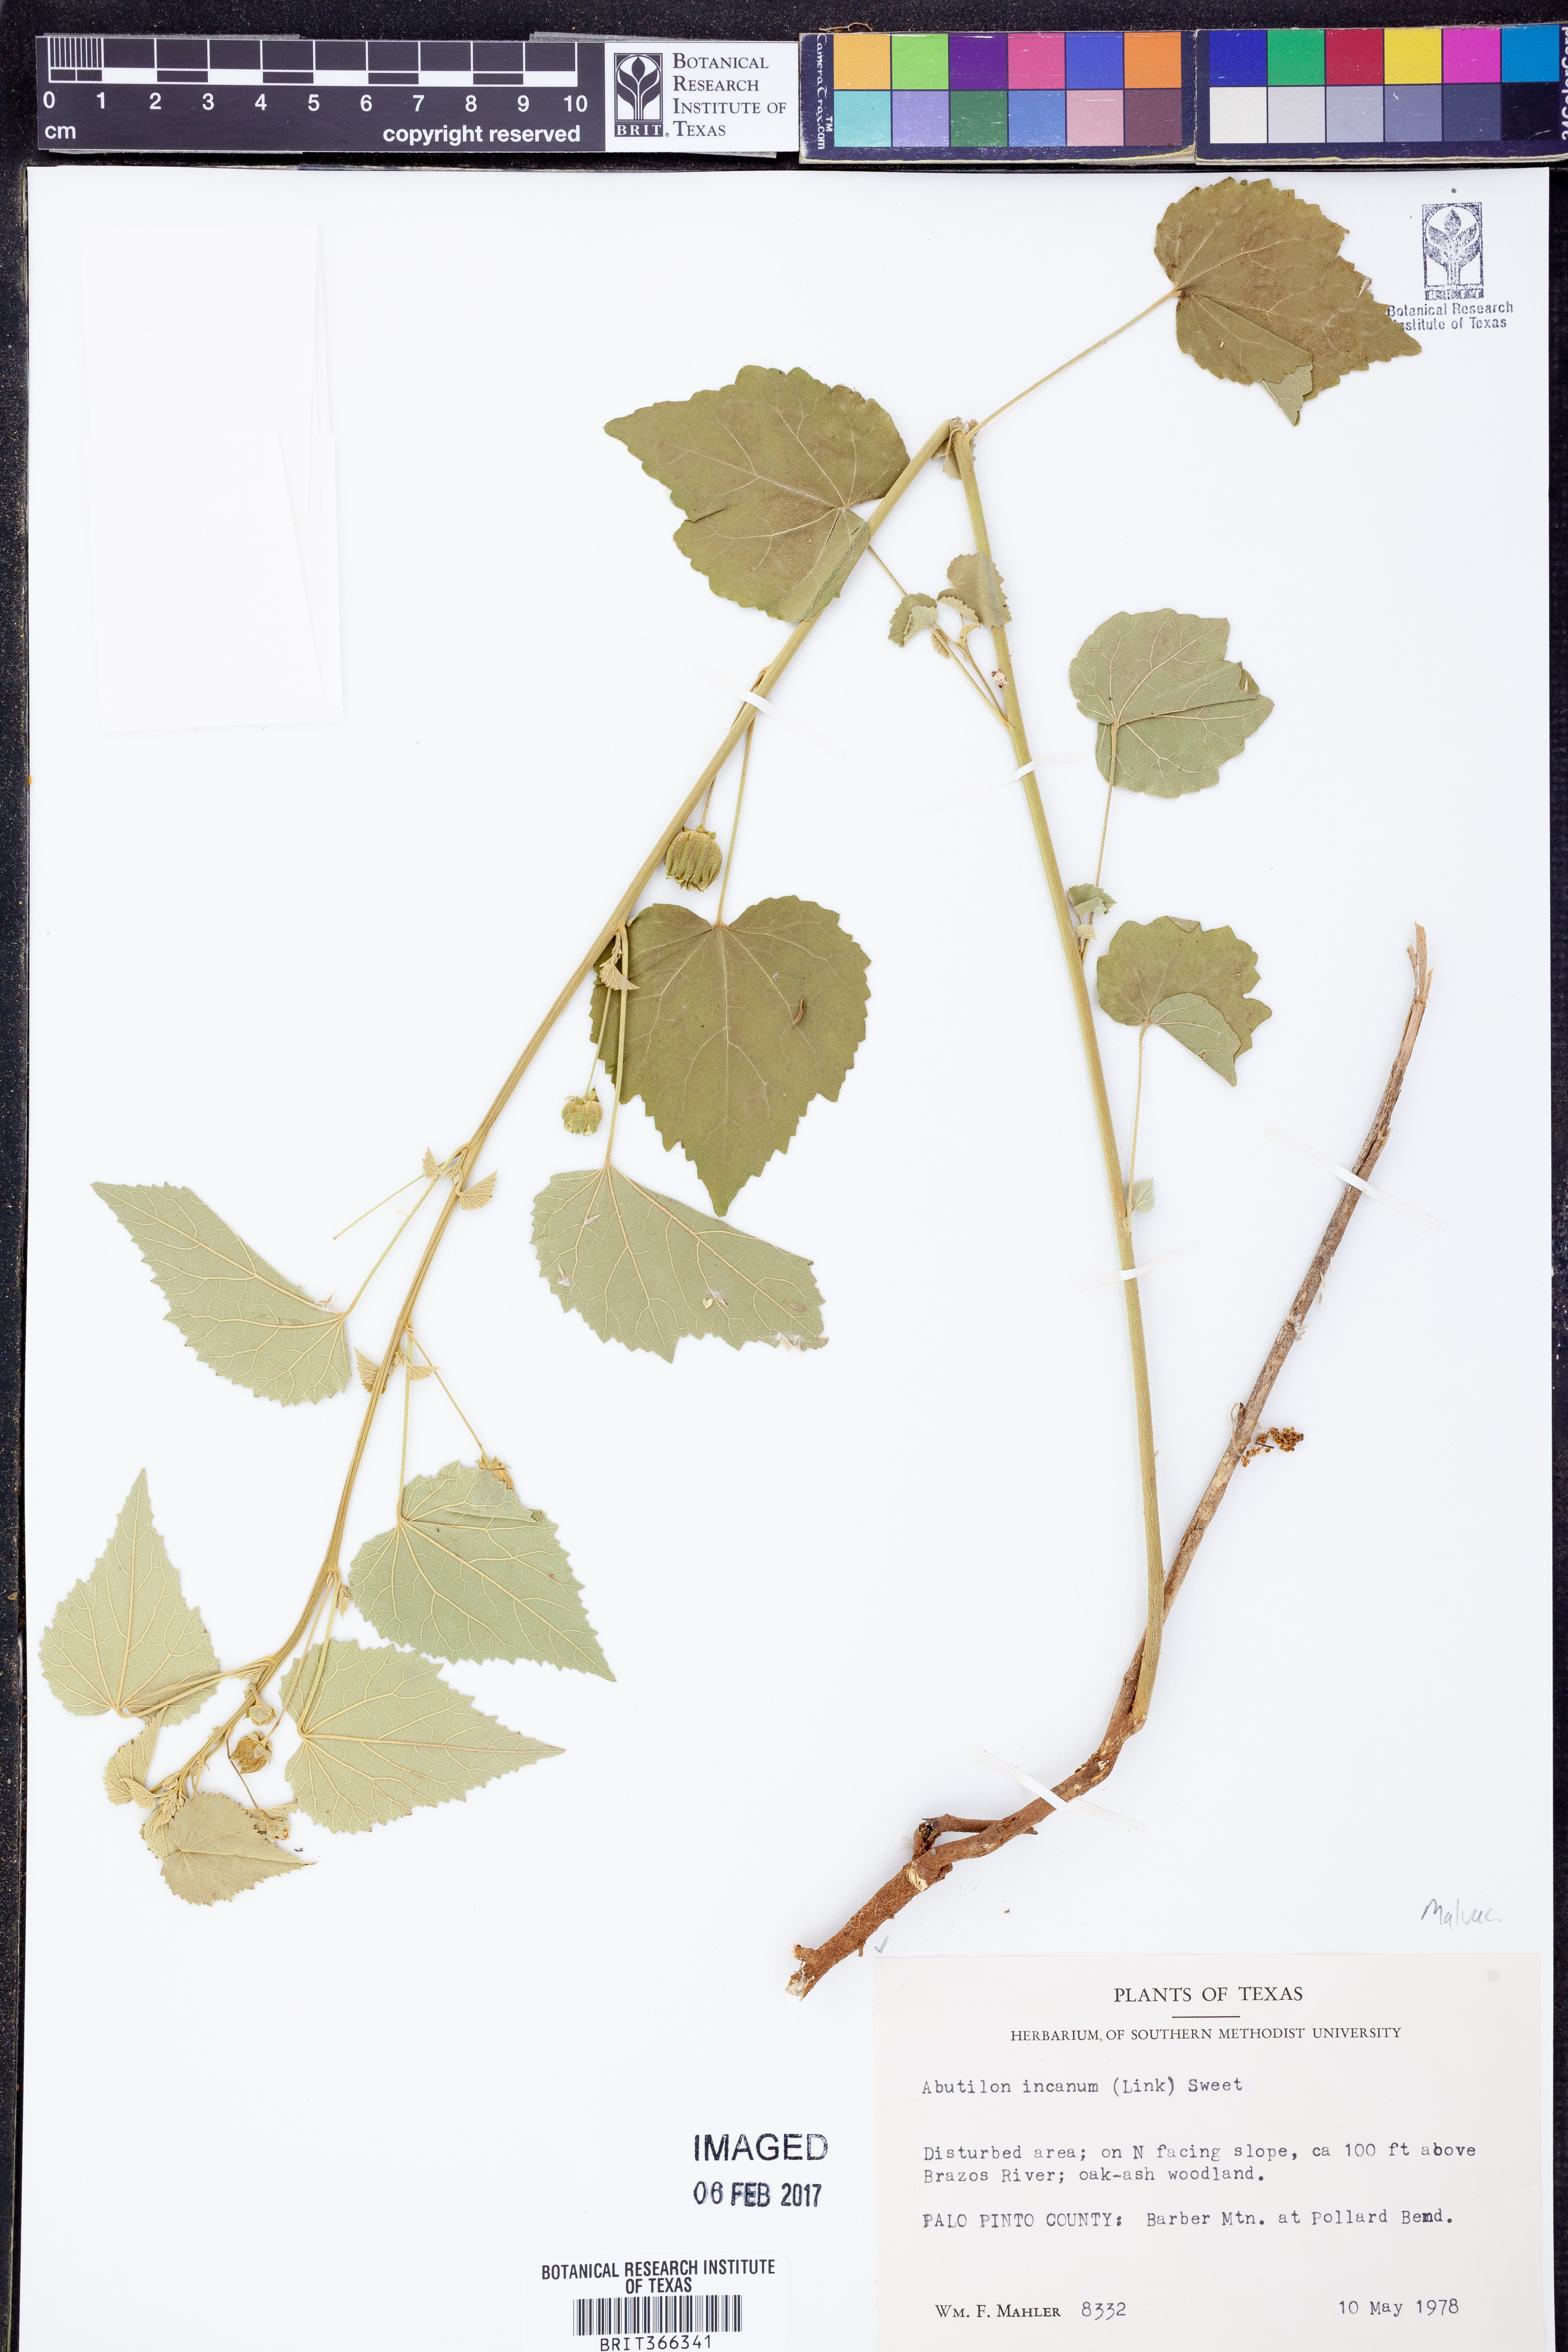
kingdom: Plantae
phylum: Tracheophyta
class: Magnoliopsida
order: Malvales
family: Malvaceae
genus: Abutilon
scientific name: Abutilon incanum
